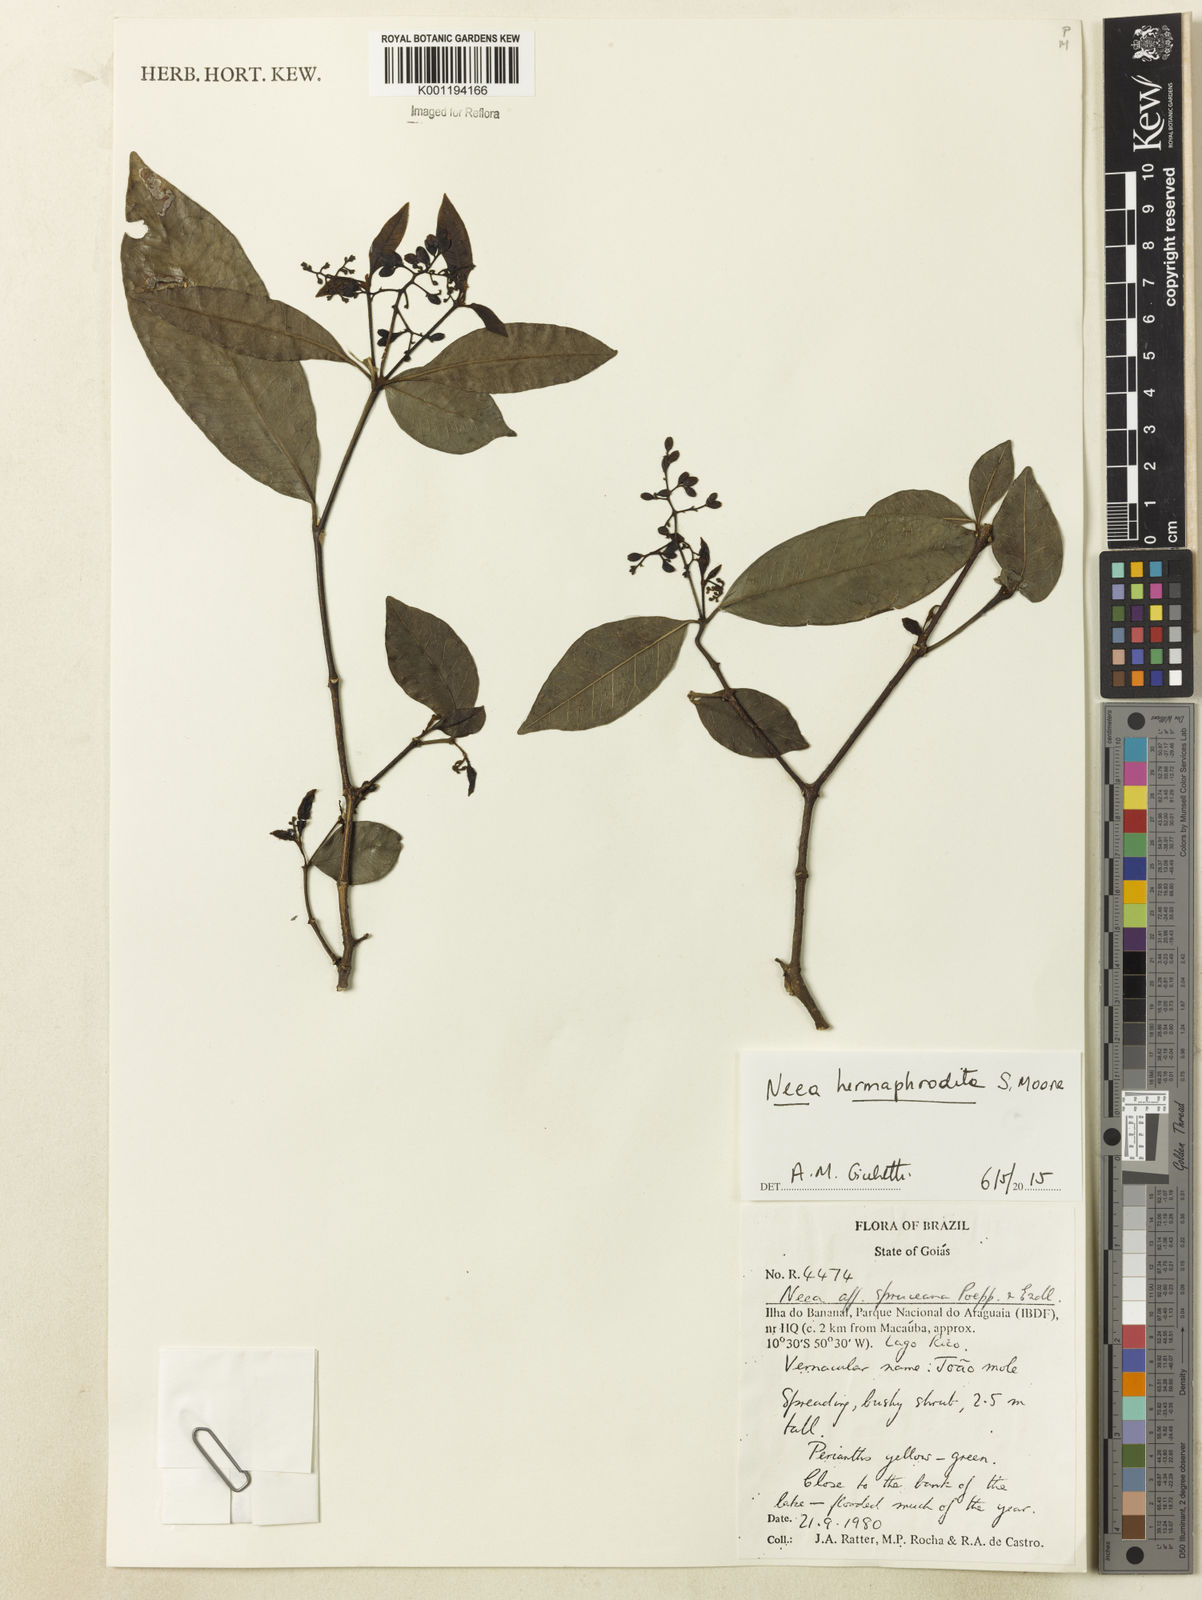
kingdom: Plantae
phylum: Tracheophyta
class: Magnoliopsida
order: Caryophyllales
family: Nyctaginaceae
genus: Neea
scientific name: Neea hermaphrodita
